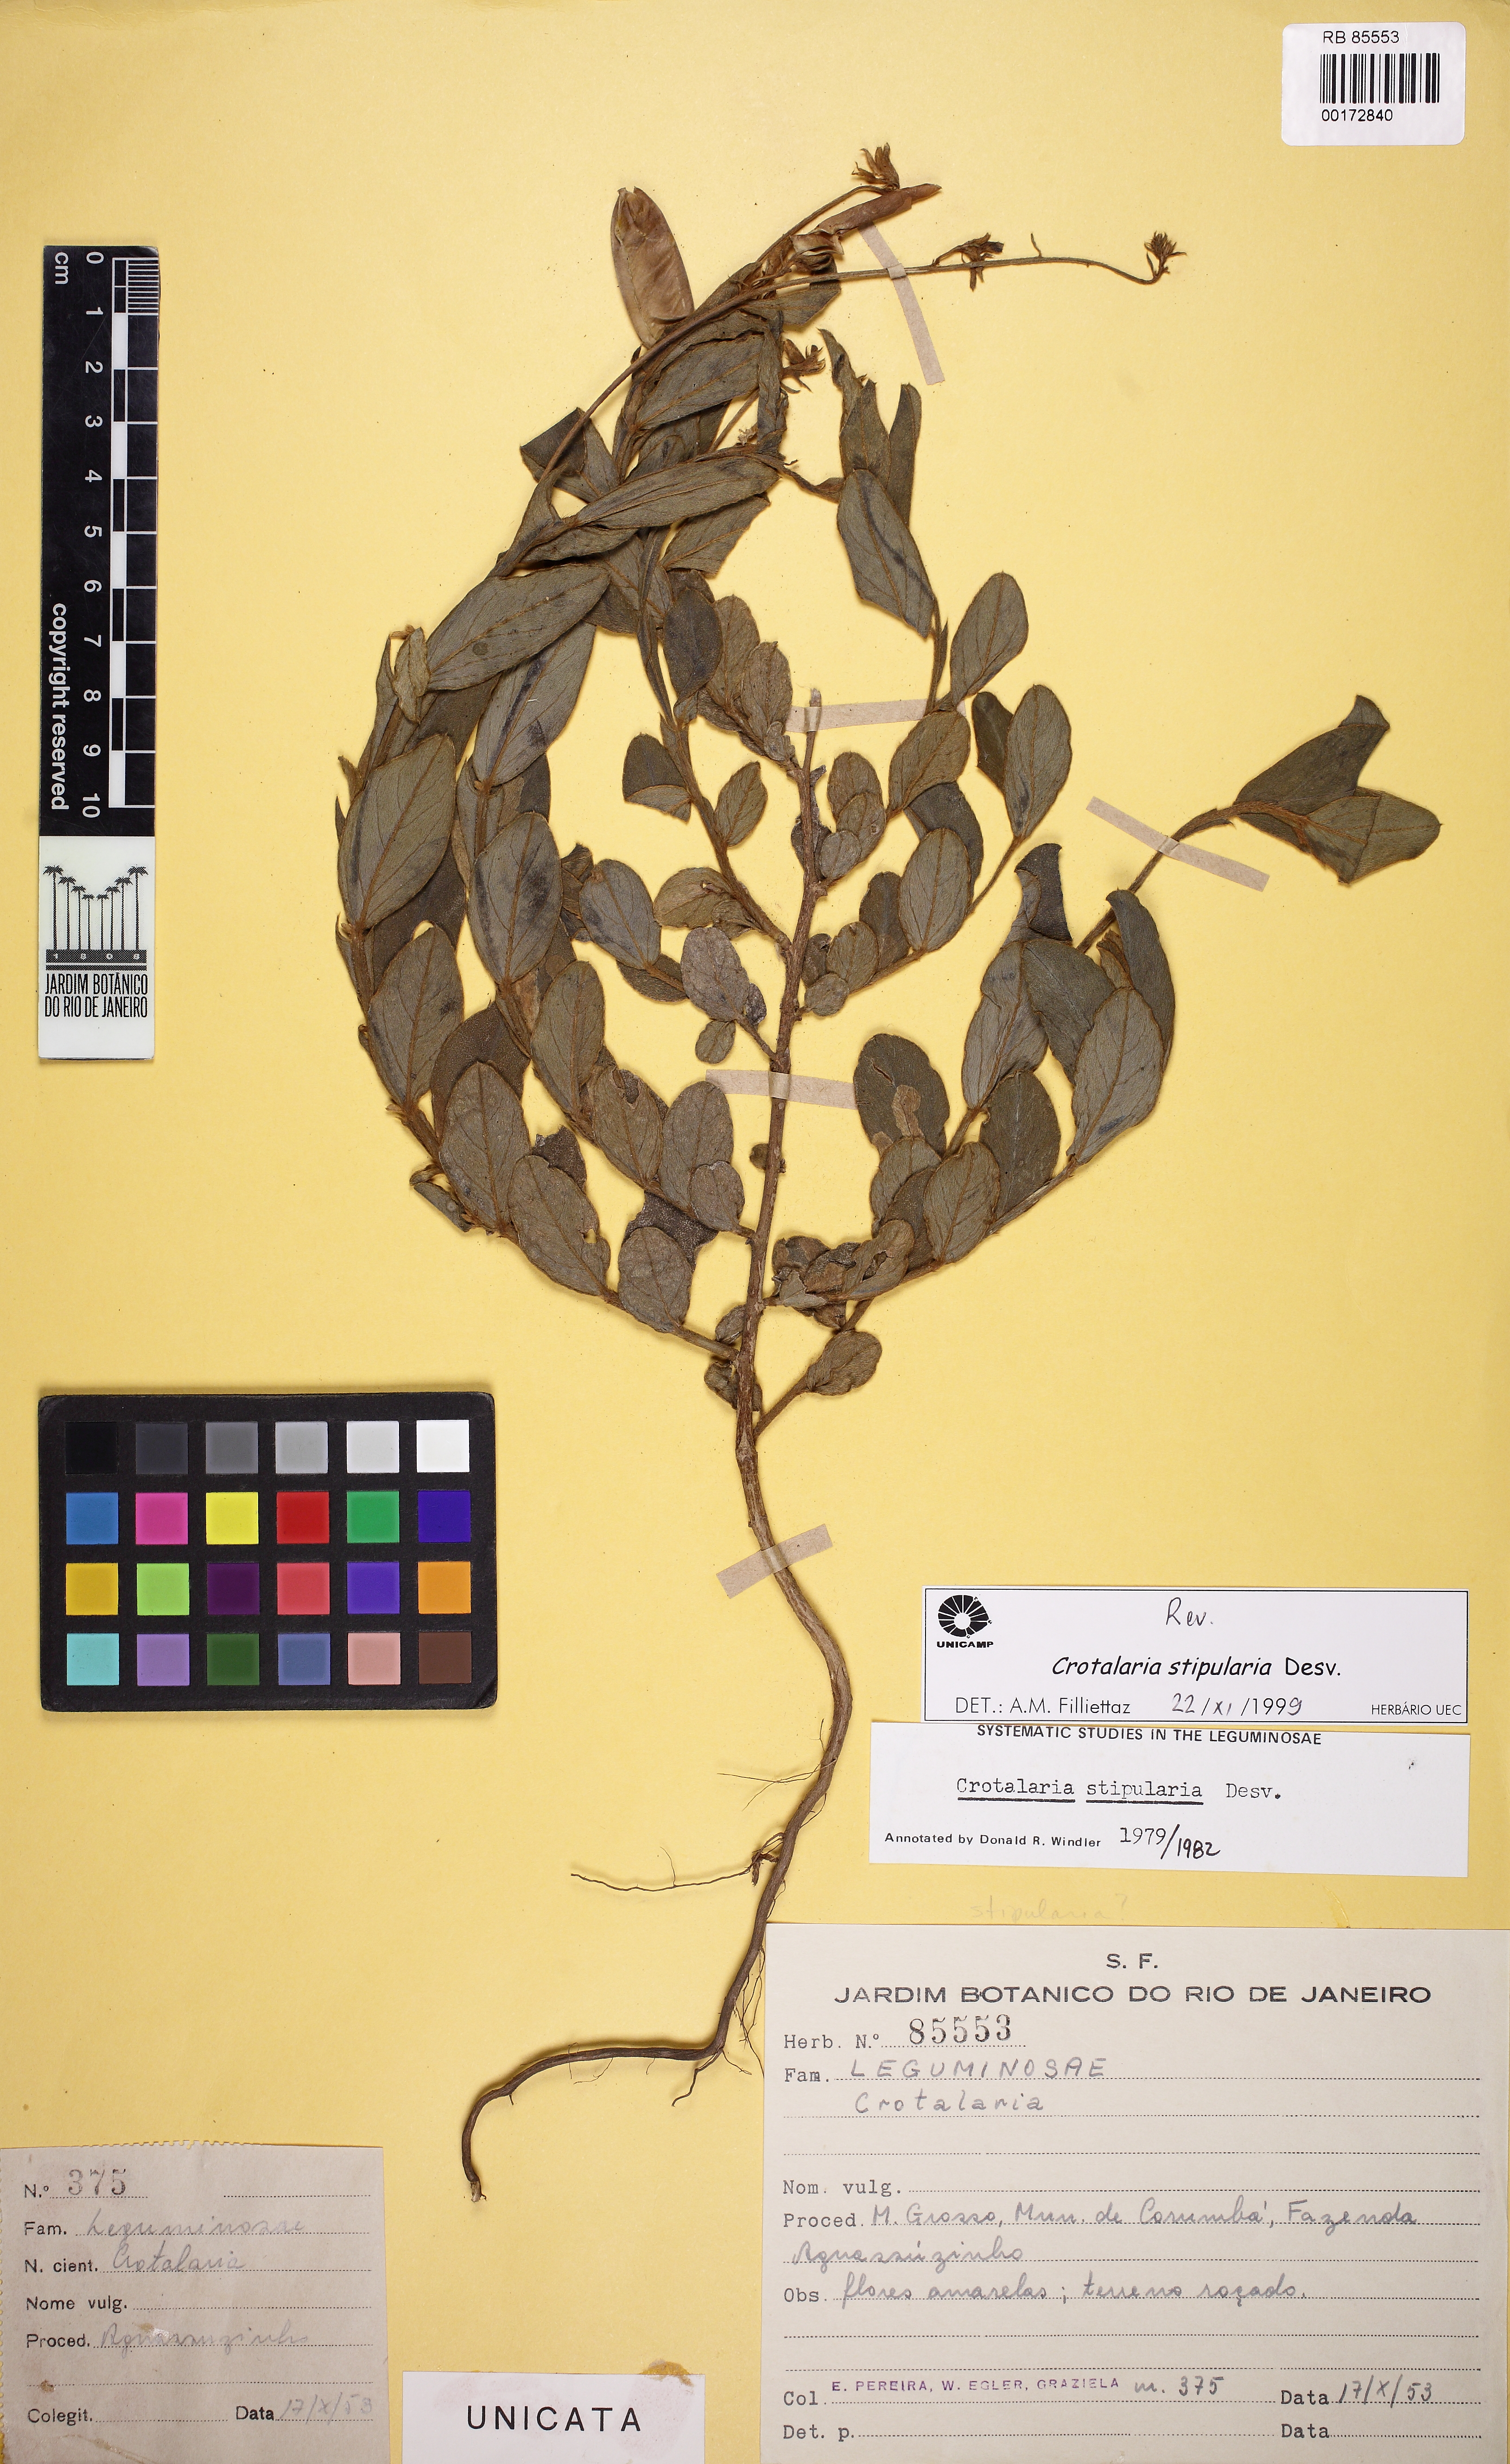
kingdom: Plantae
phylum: Tracheophyta
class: Magnoliopsida
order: Fabales
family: Fabaceae
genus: Crotalaria
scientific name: Crotalaria stipularia
